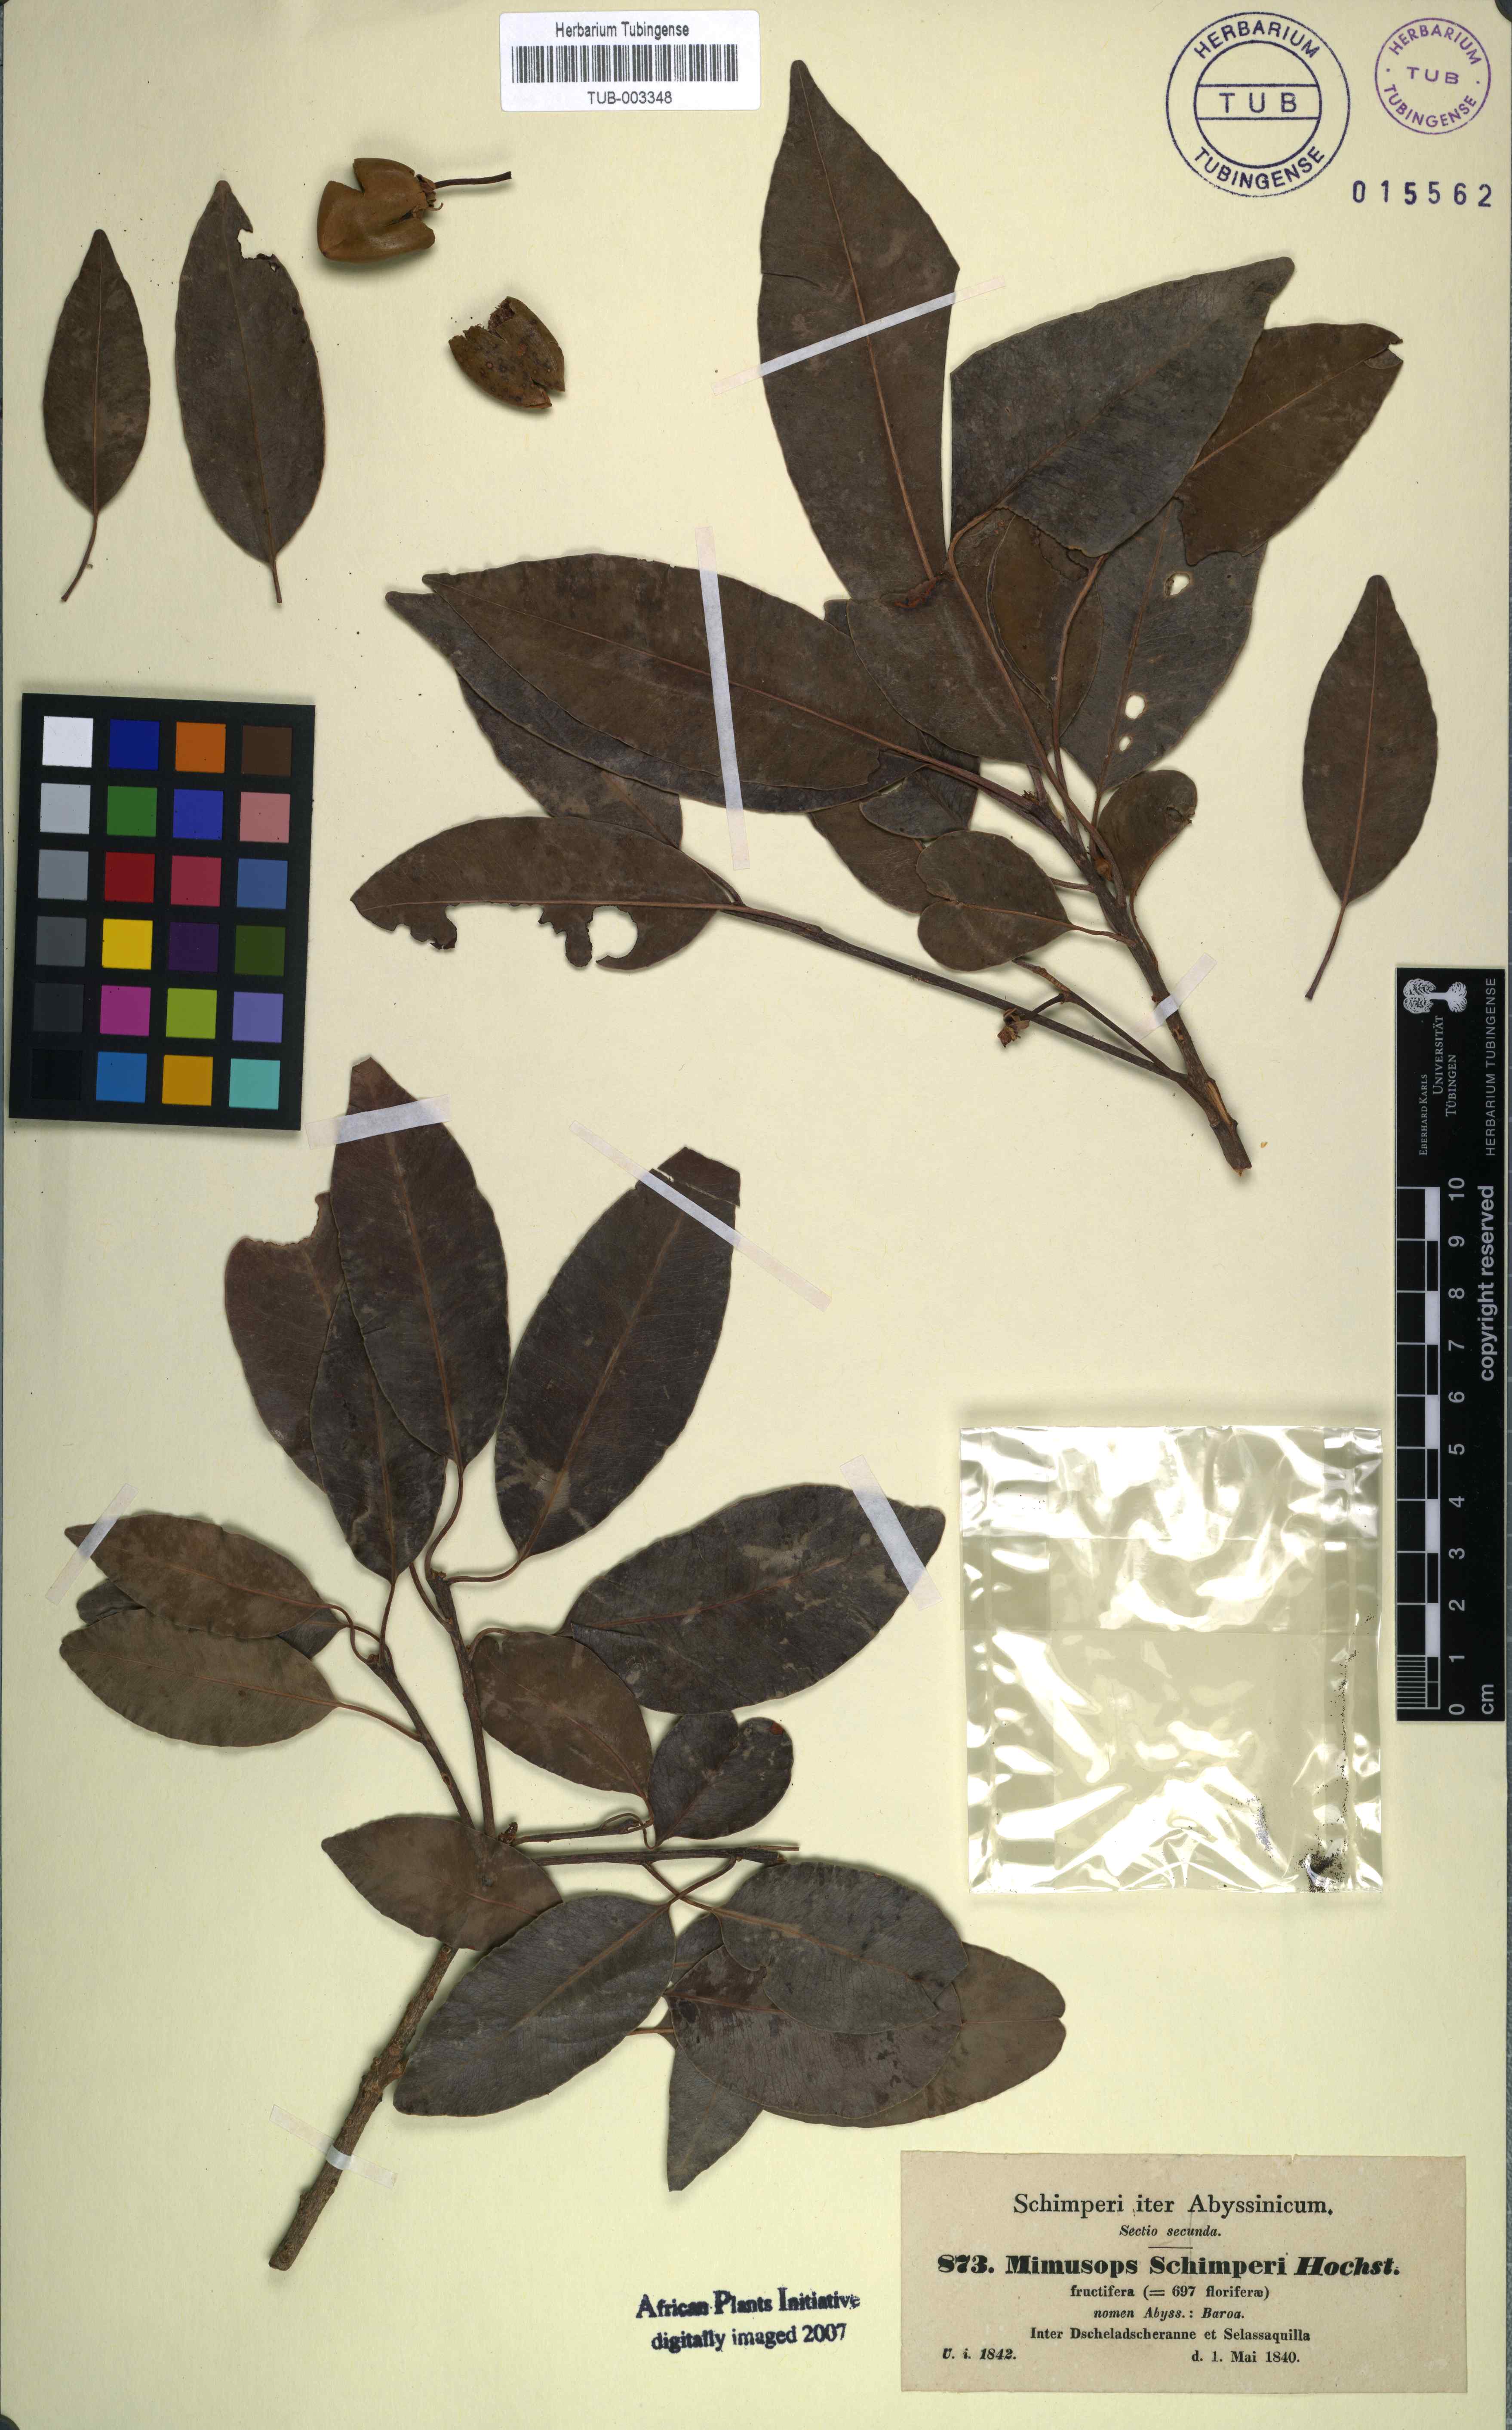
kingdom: Plantae
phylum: Tracheophyta
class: Magnoliopsida
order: Ericales
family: Sapotaceae
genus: Mimusops
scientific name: Mimusops laurifolia
